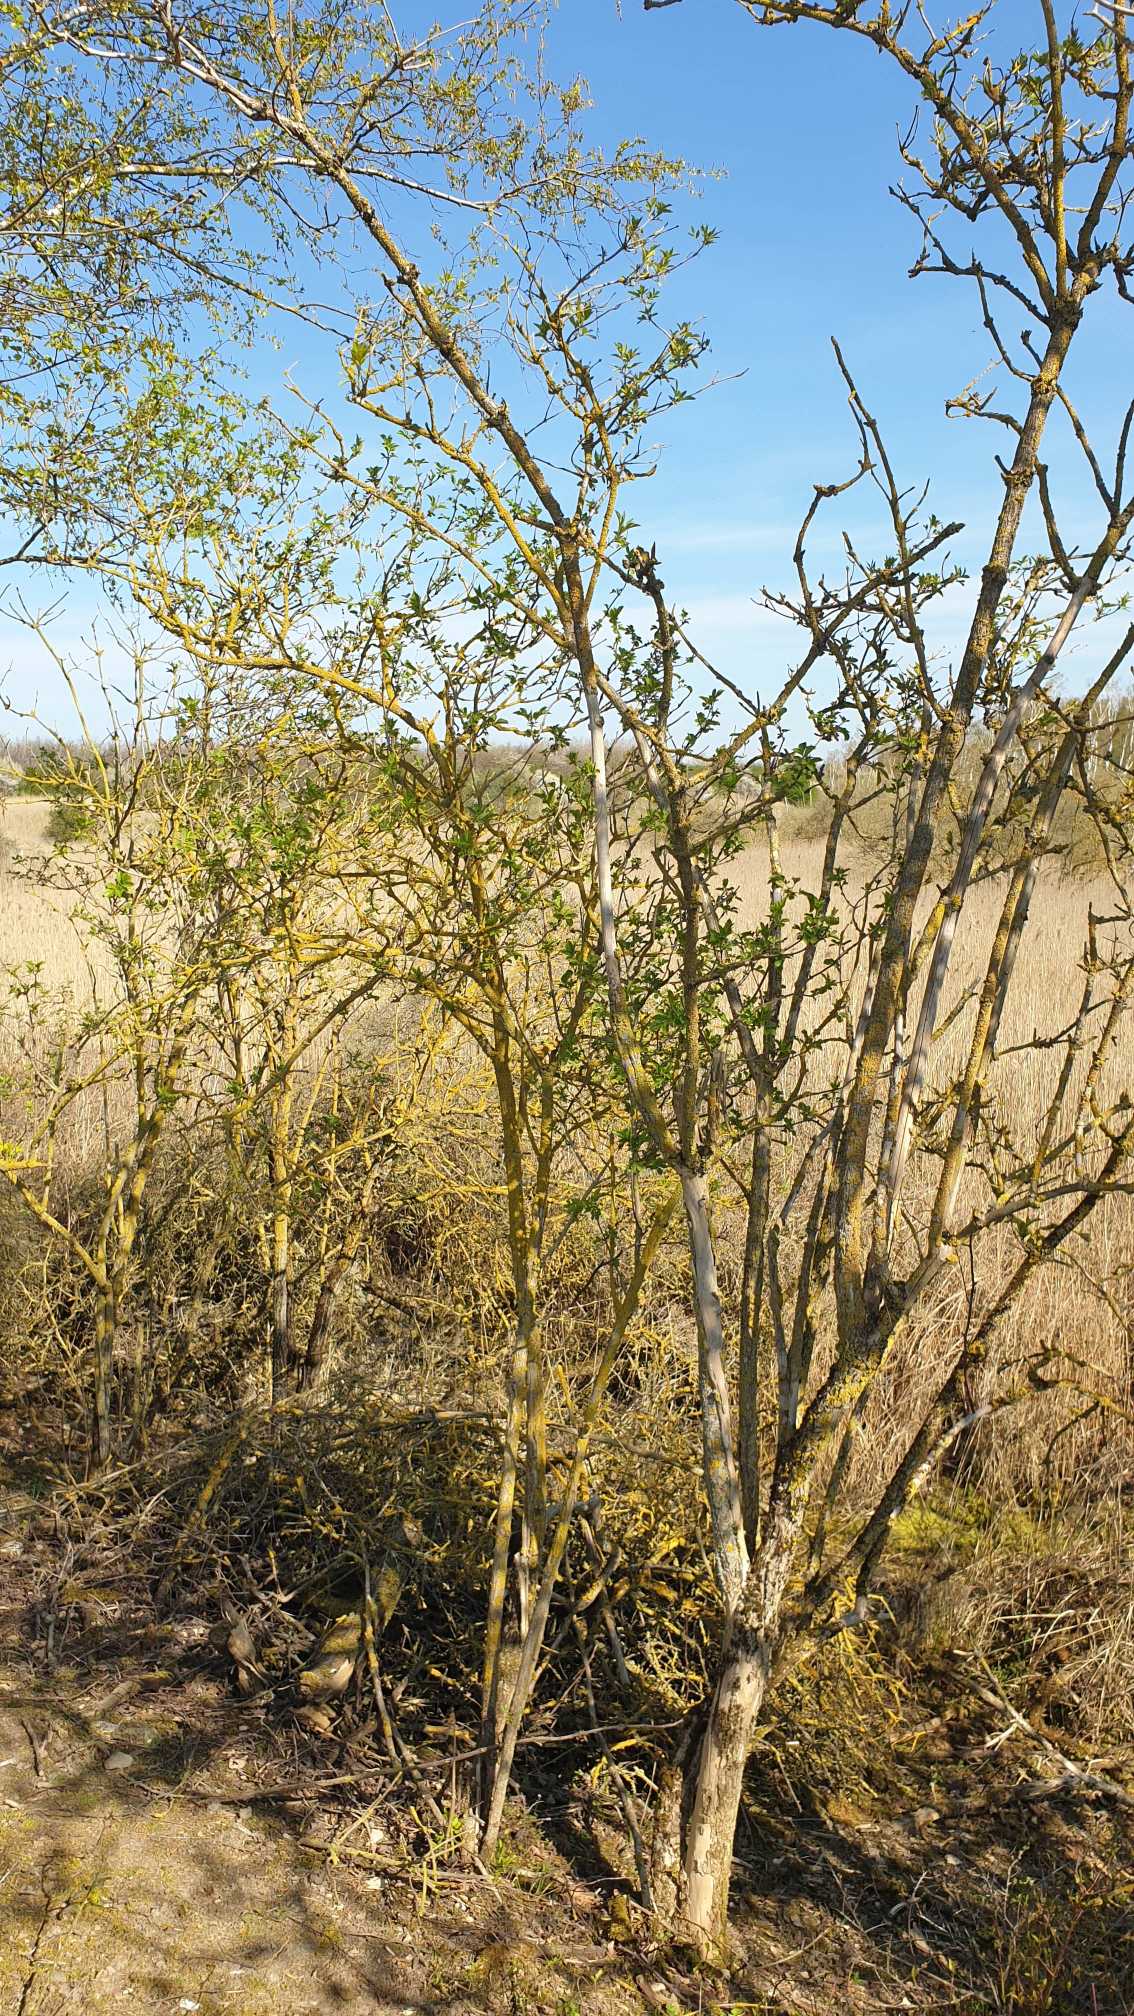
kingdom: Plantae
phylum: Tracheophyta
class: Magnoliopsida
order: Dipsacales
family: Viburnaceae
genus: Sambucus
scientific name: Sambucus nigra
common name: Almindelig hyld
